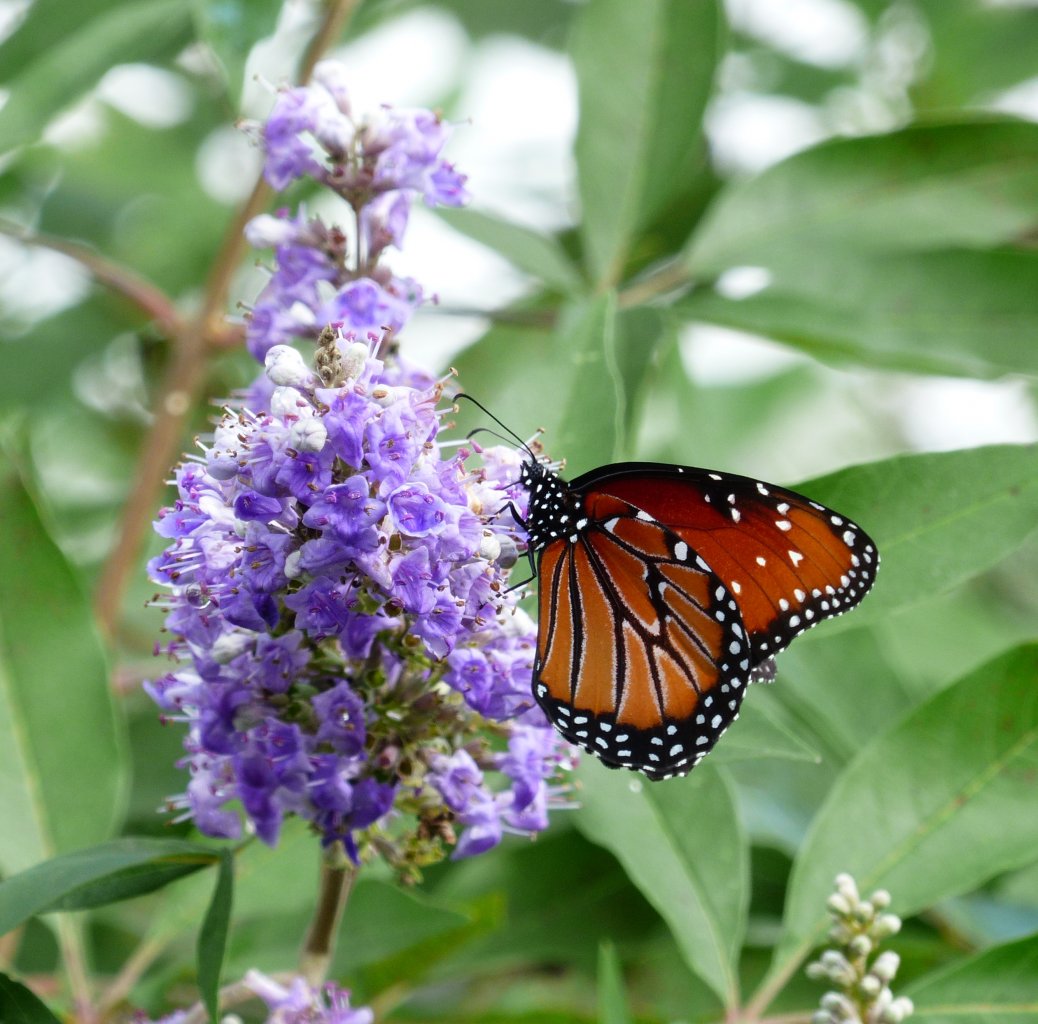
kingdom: Animalia
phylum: Arthropoda
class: Insecta
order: Lepidoptera
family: Nymphalidae
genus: Danaus
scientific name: Danaus gilippus
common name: Queen
